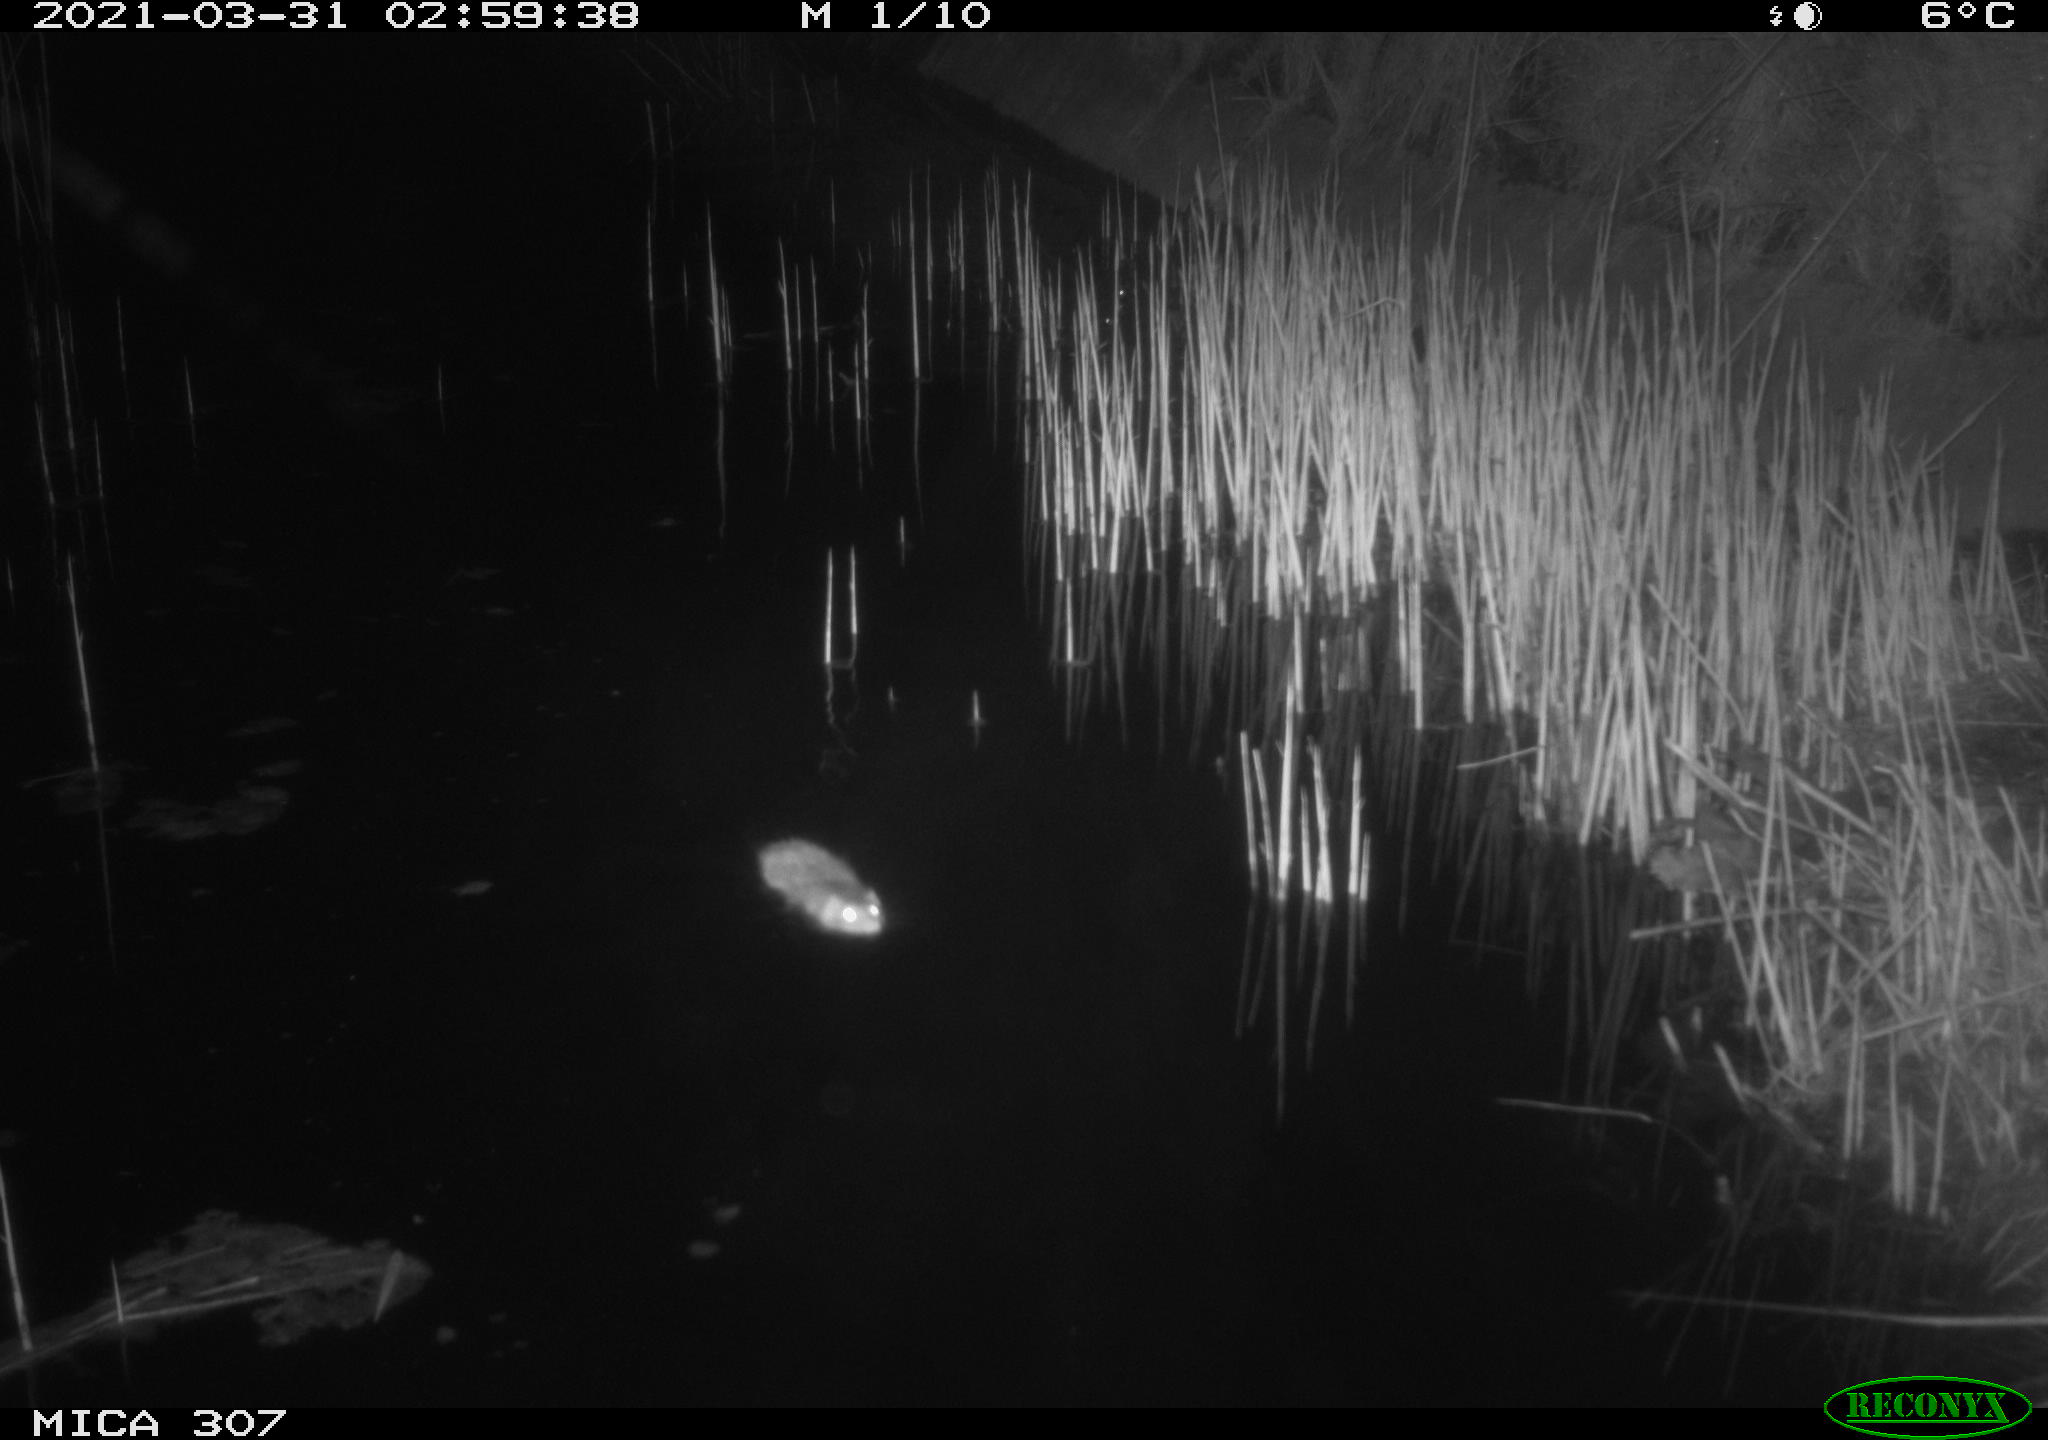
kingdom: Animalia
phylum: Chordata
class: Mammalia
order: Rodentia
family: Muridae
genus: Rattus
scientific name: Rattus norvegicus
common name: Brown rat
